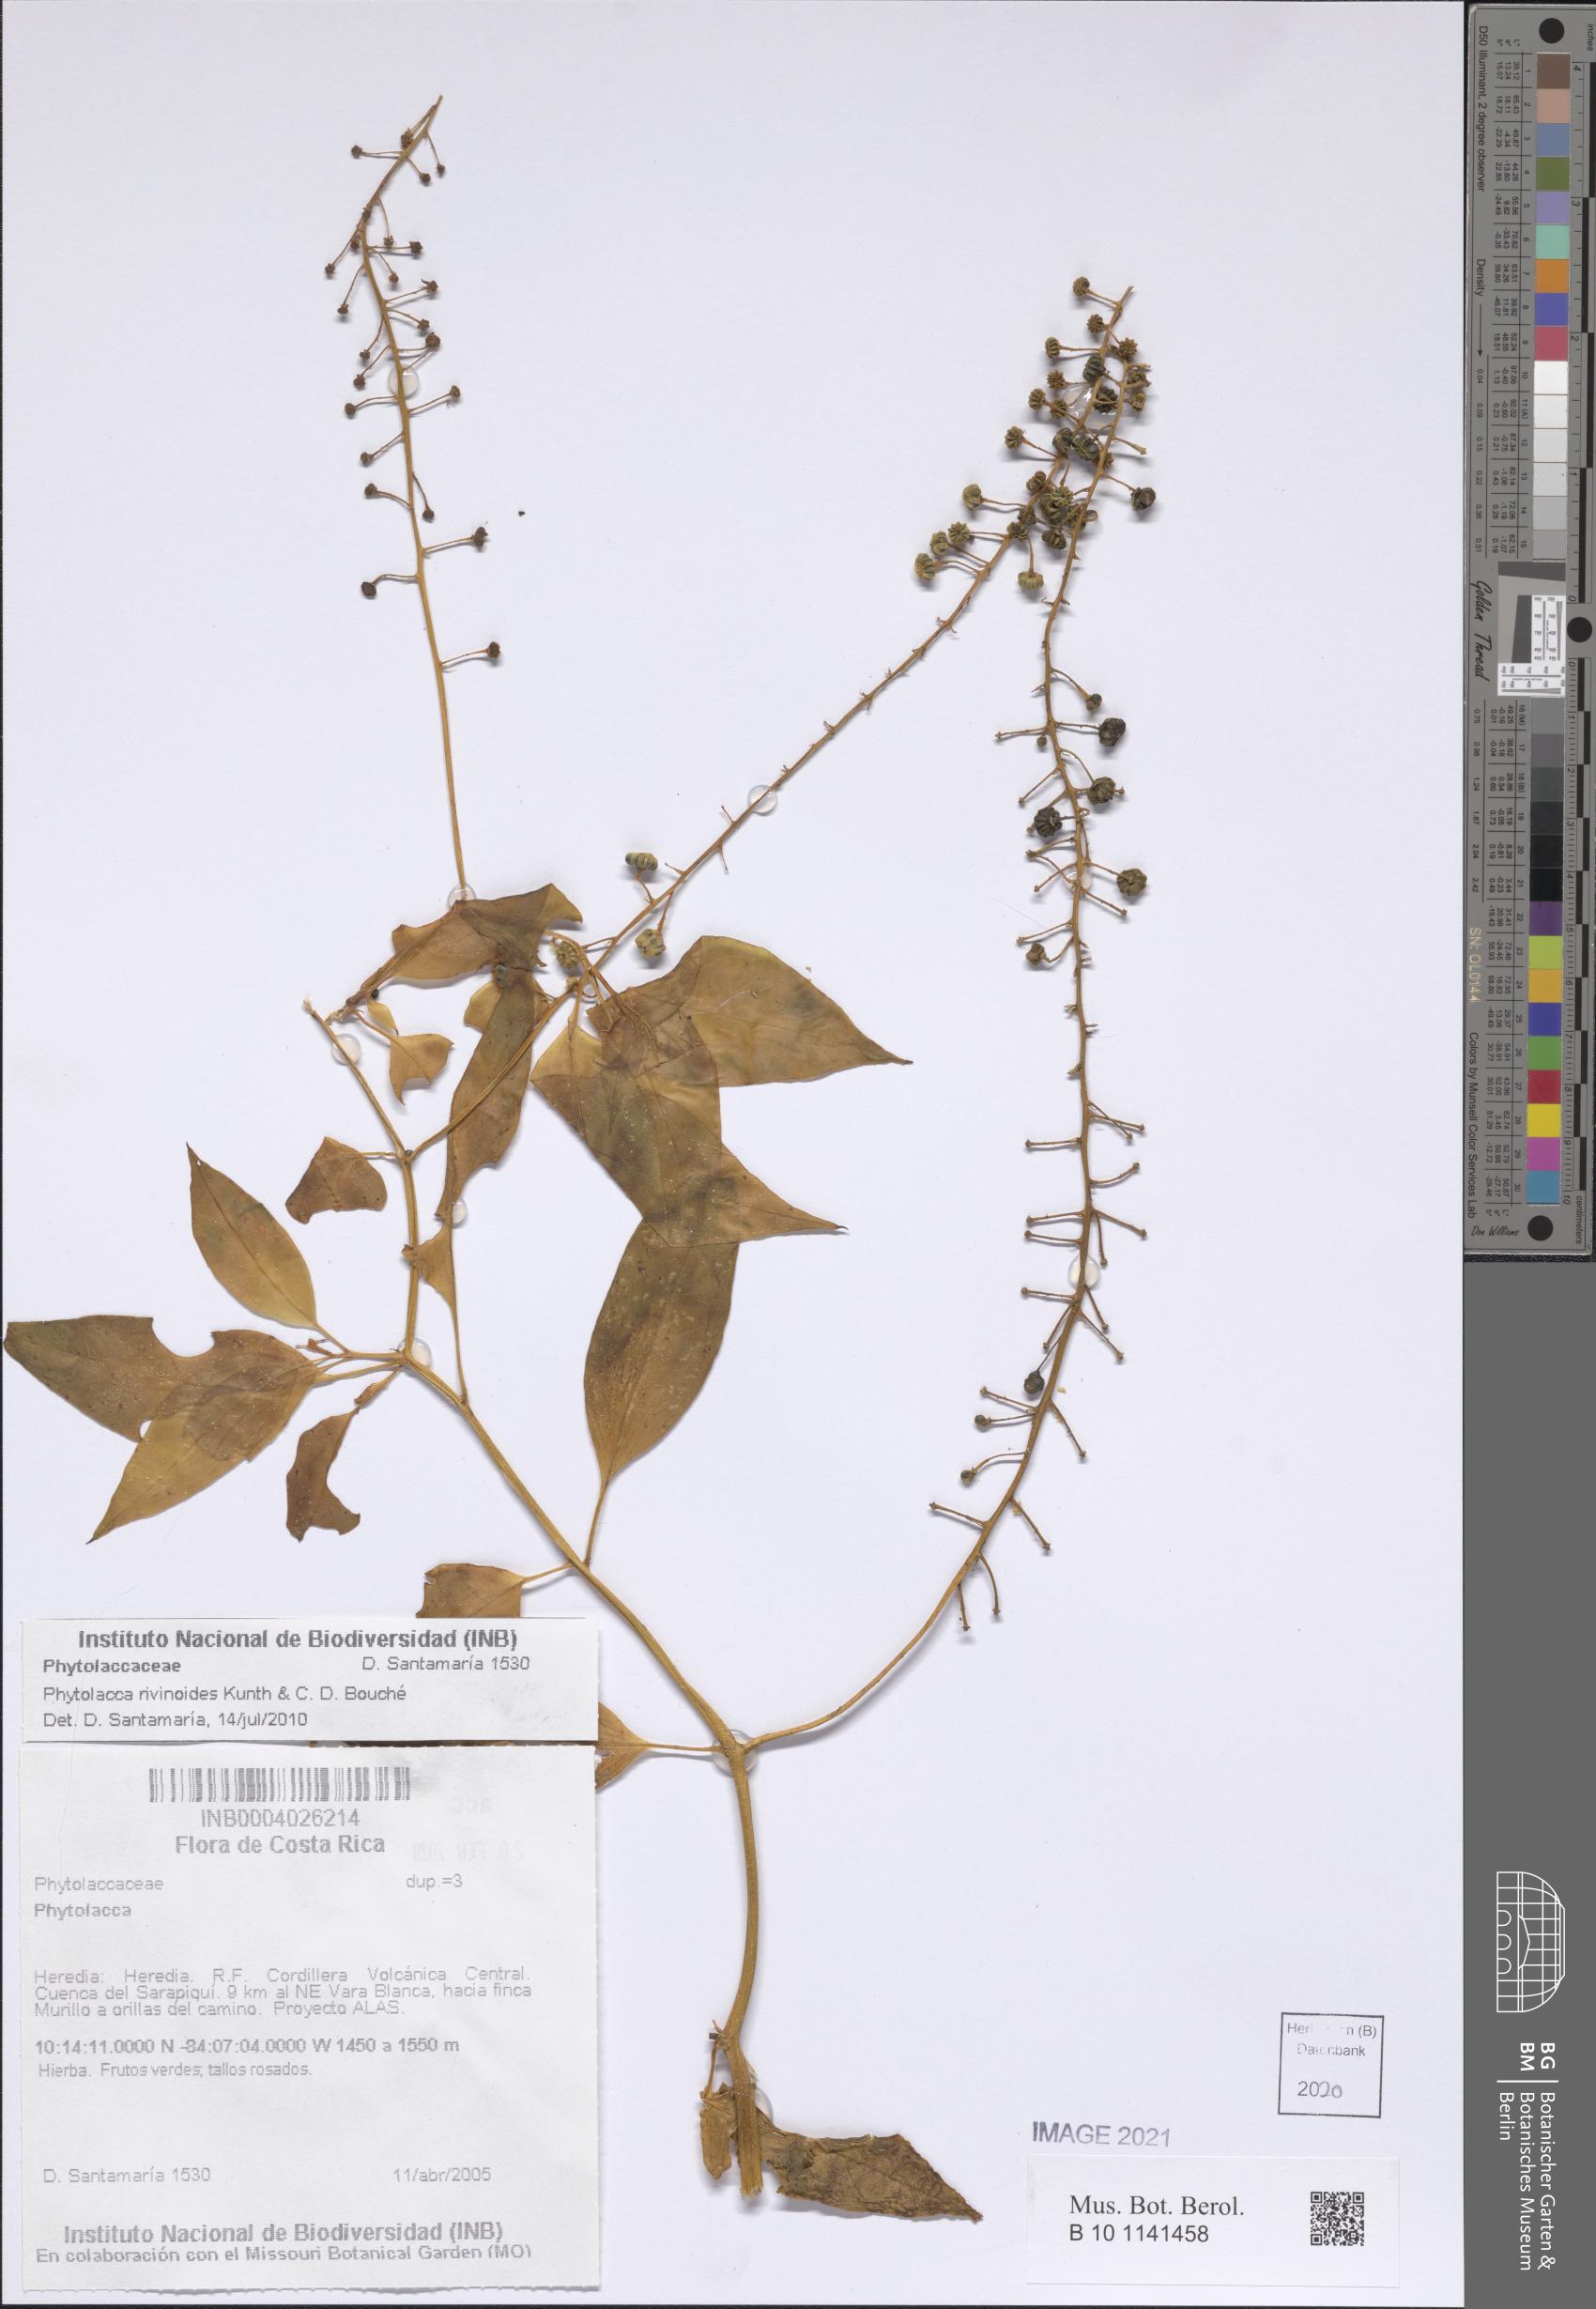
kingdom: Plantae
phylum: Tracheophyta
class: Magnoliopsida
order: Caryophyllales
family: Phytolaccaceae
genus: Phytolacca
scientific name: Phytolacca rivinoides
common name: Venezuelan pokeweed
